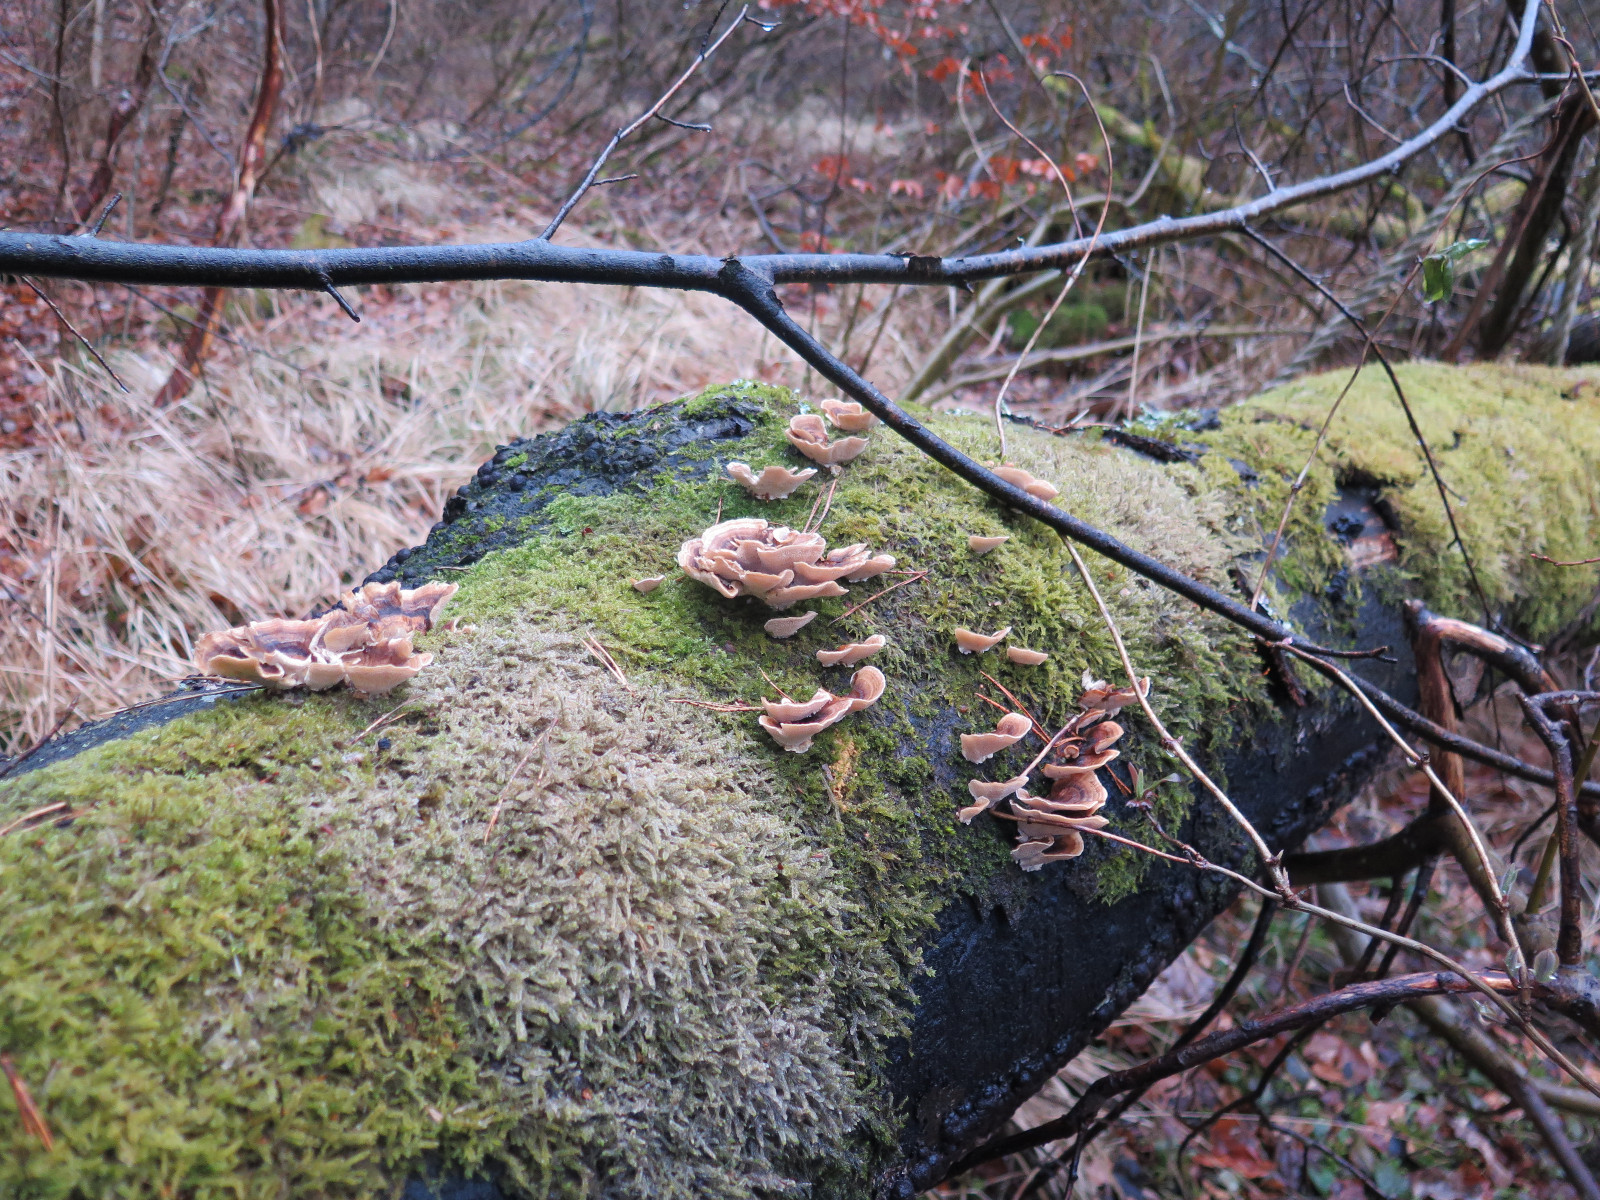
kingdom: Fungi
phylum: Basidiomycota
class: Agaricomycetes
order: Polyporales
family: Polyporaceae
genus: Trametes
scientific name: Trametes versicolor
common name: broget læderporesvamp
